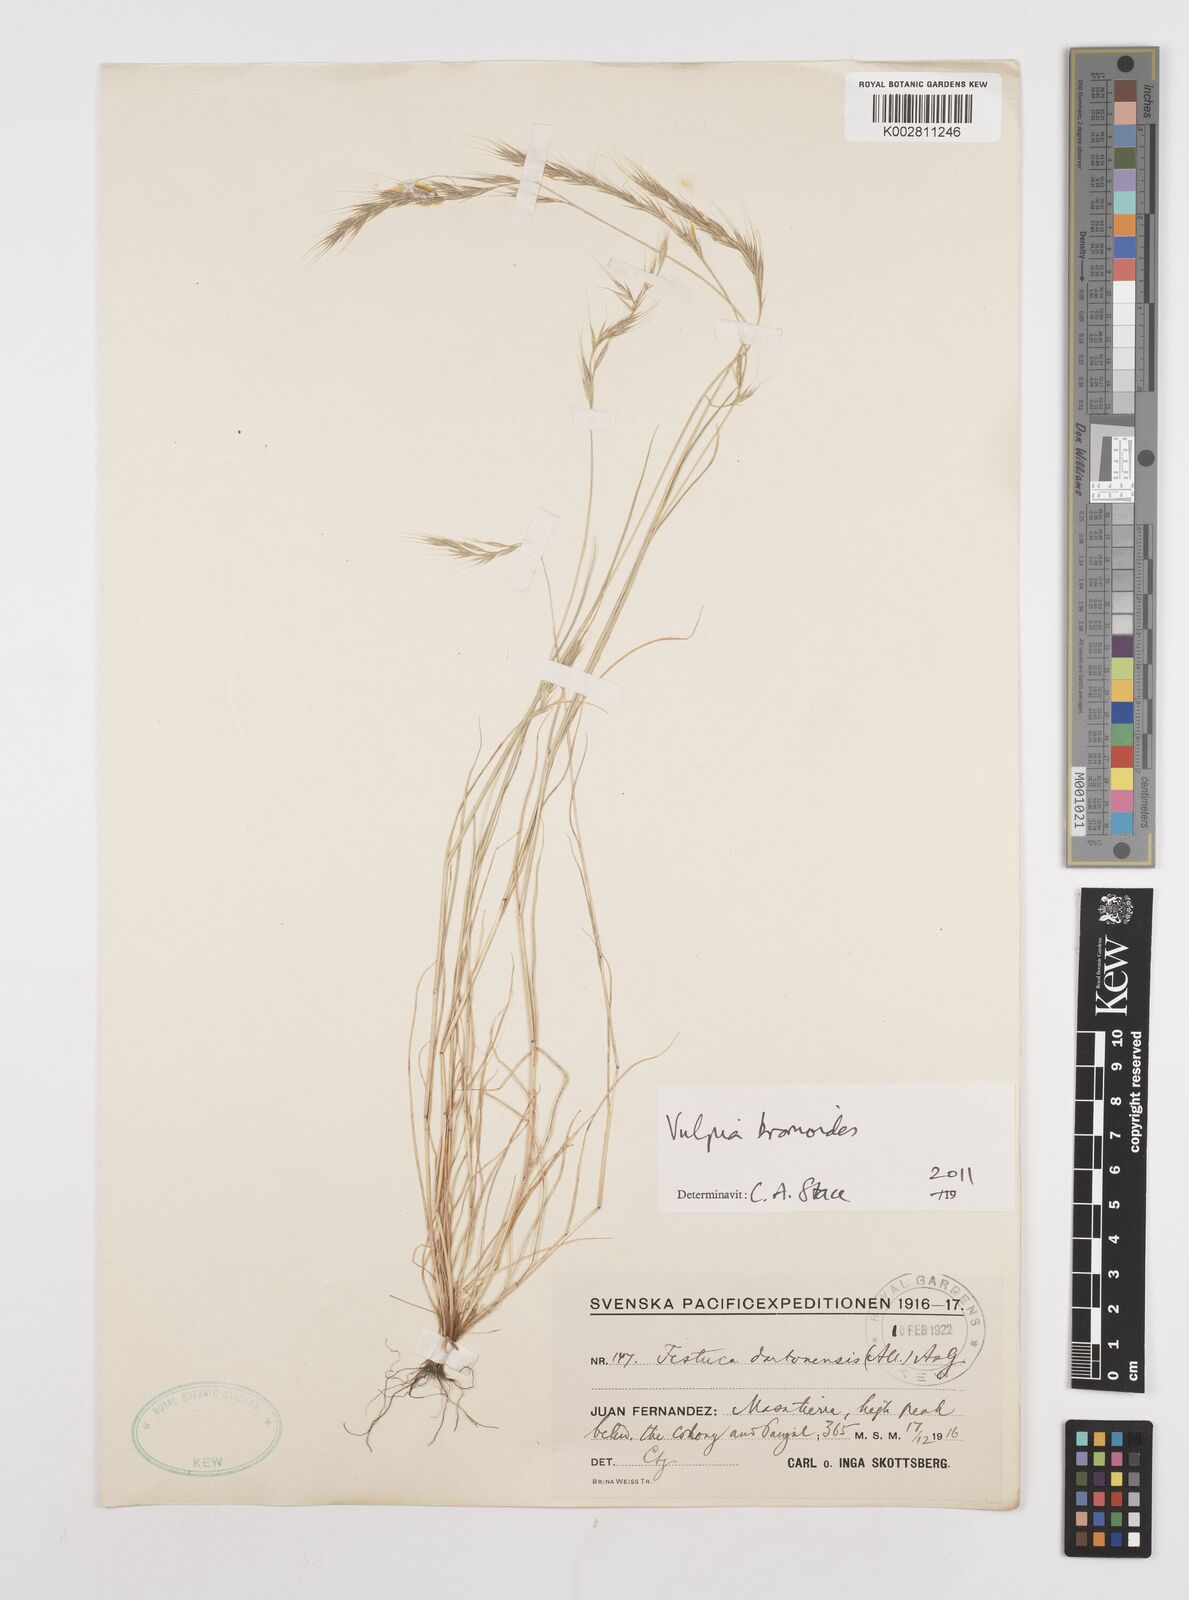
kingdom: Plantae
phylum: Tracheophyta
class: Liliopsida
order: Poales
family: Poaceae
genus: Festuca
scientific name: Festuca bromoides
